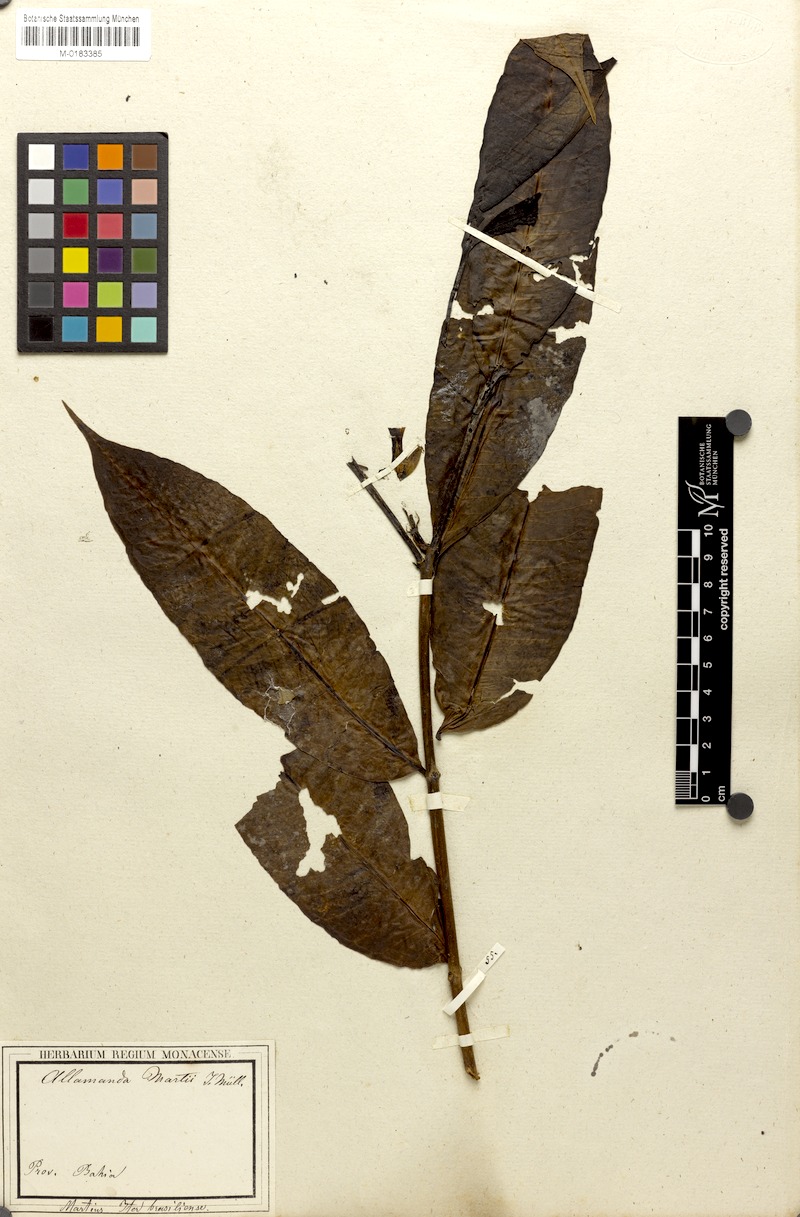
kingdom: Plantae
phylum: Tracheophyta
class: Magnoliopsida
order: Gentianales
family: Apocynaceae
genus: Allamanda
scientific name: Allamanda martii
